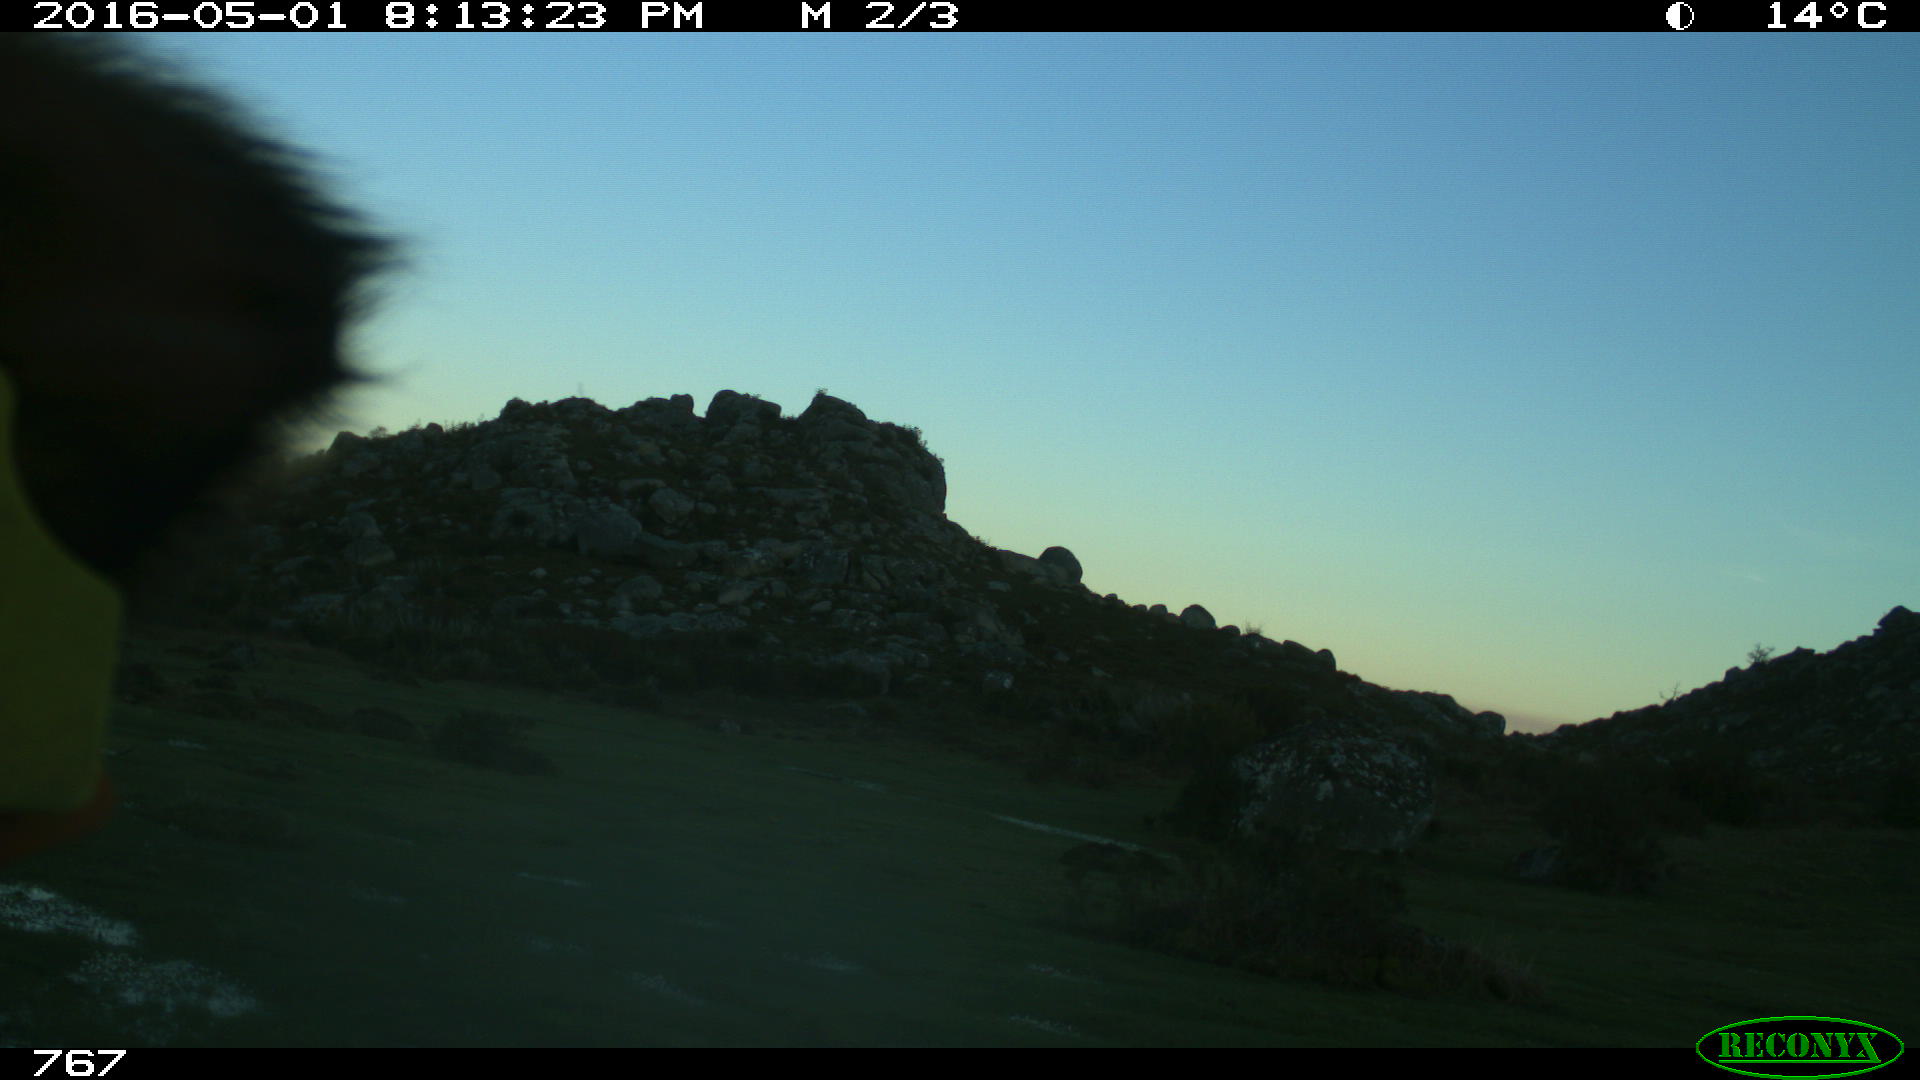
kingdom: Animalia
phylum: Chordata
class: Mammalia
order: Artiodactyla
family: Bovidae
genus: Bos
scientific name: Bos taurus
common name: Domesticated cattle
